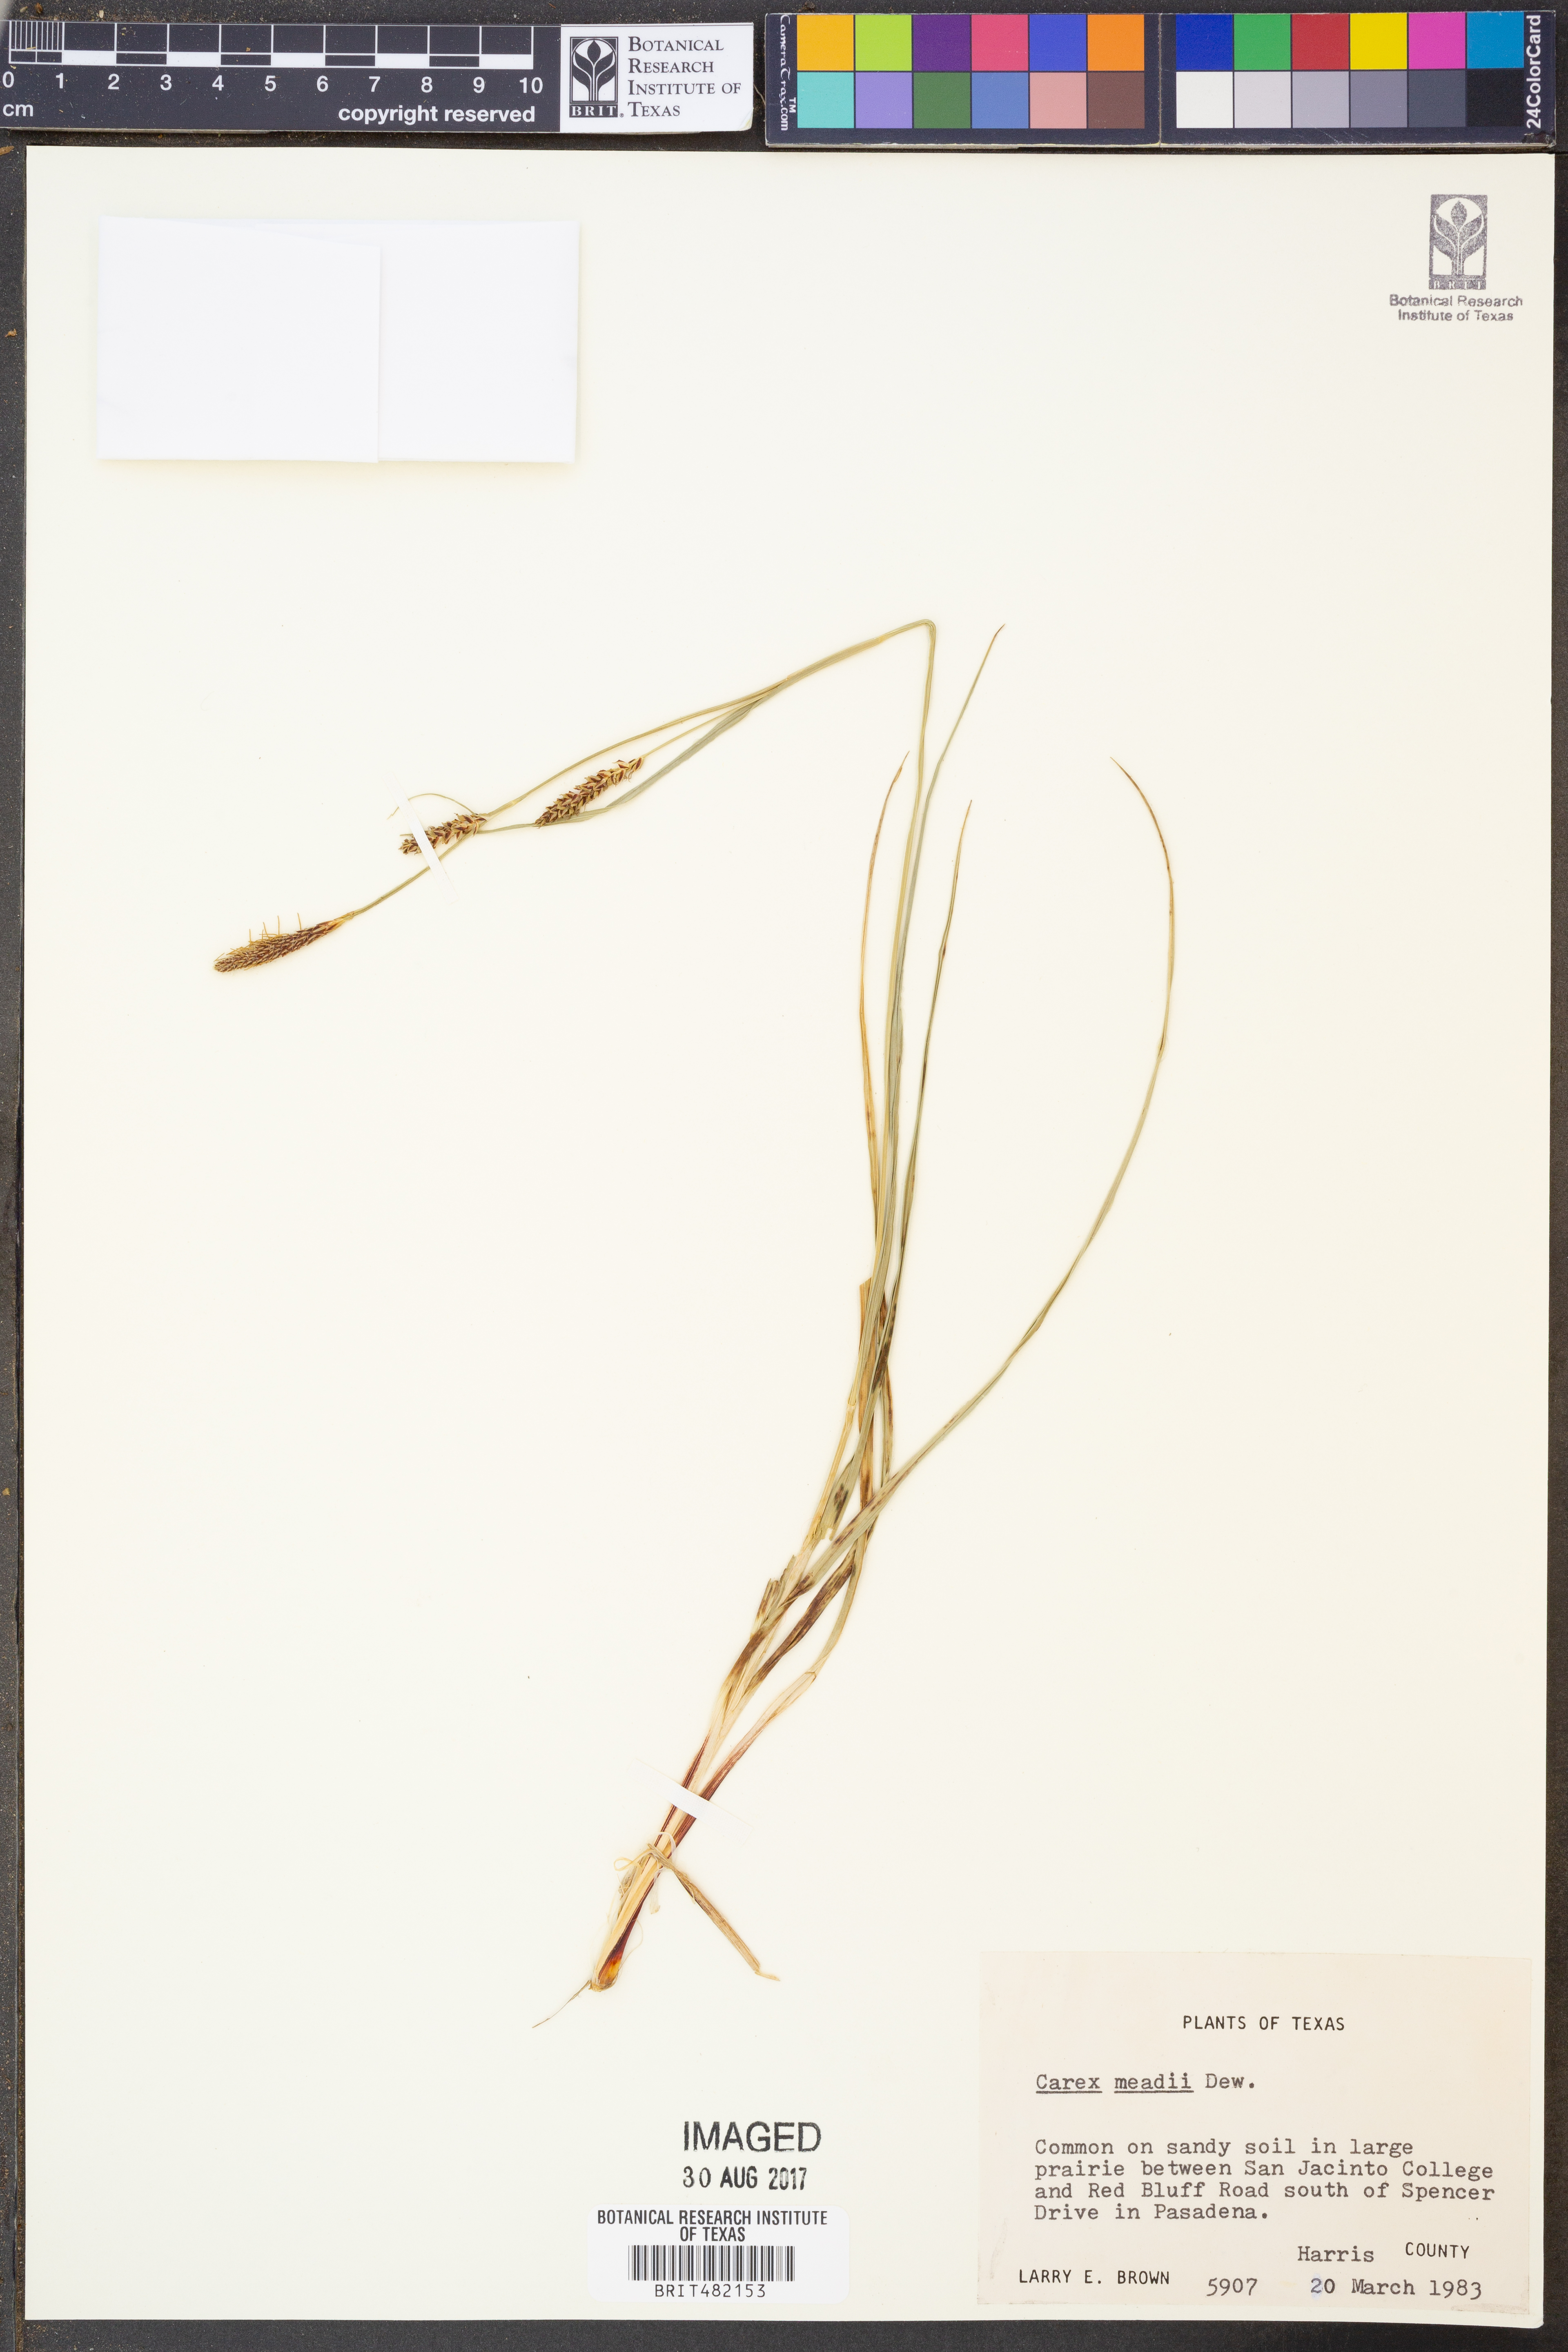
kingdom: Plantae
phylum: Tracheophyta
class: Liliopsida
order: Poales
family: Cyperaceae
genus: Carex
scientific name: Carex meadii
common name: Mead's sedge
